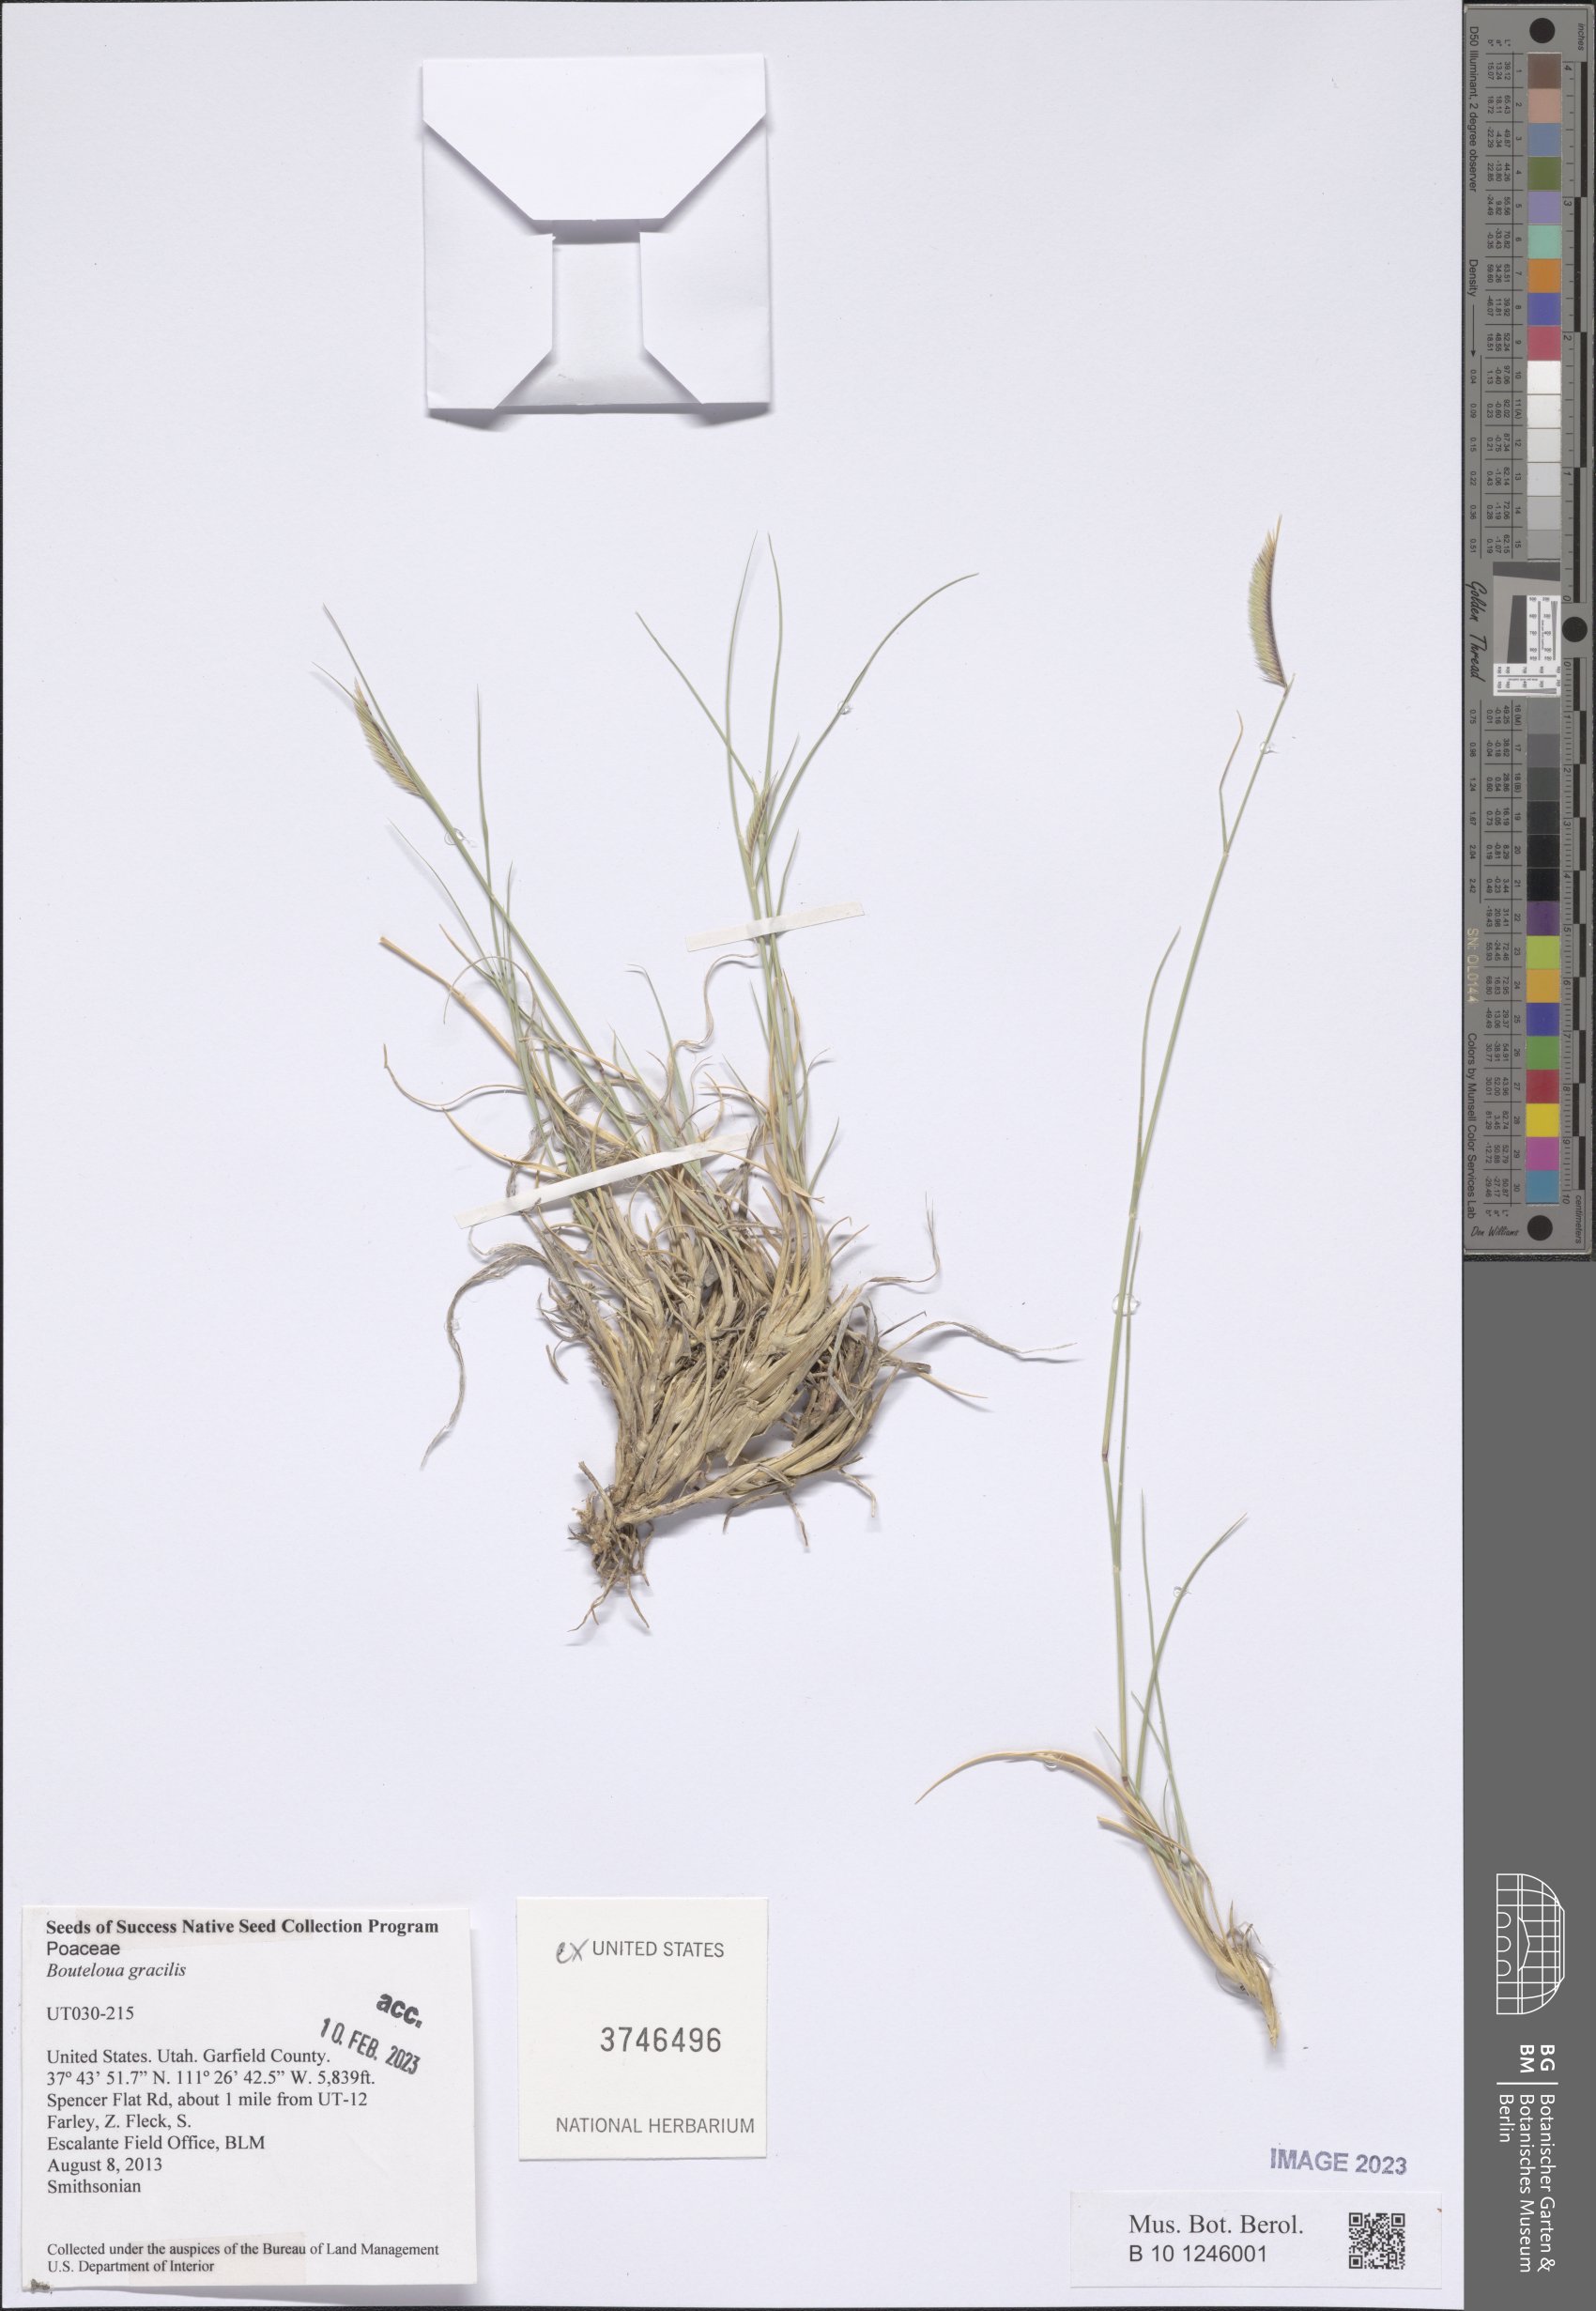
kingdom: Plantae
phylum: Tracheophyta
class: Liliopsida
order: Poales
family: Poaceae
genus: Bouteloua
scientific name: Bouteloua gracilis
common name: Blue grama
